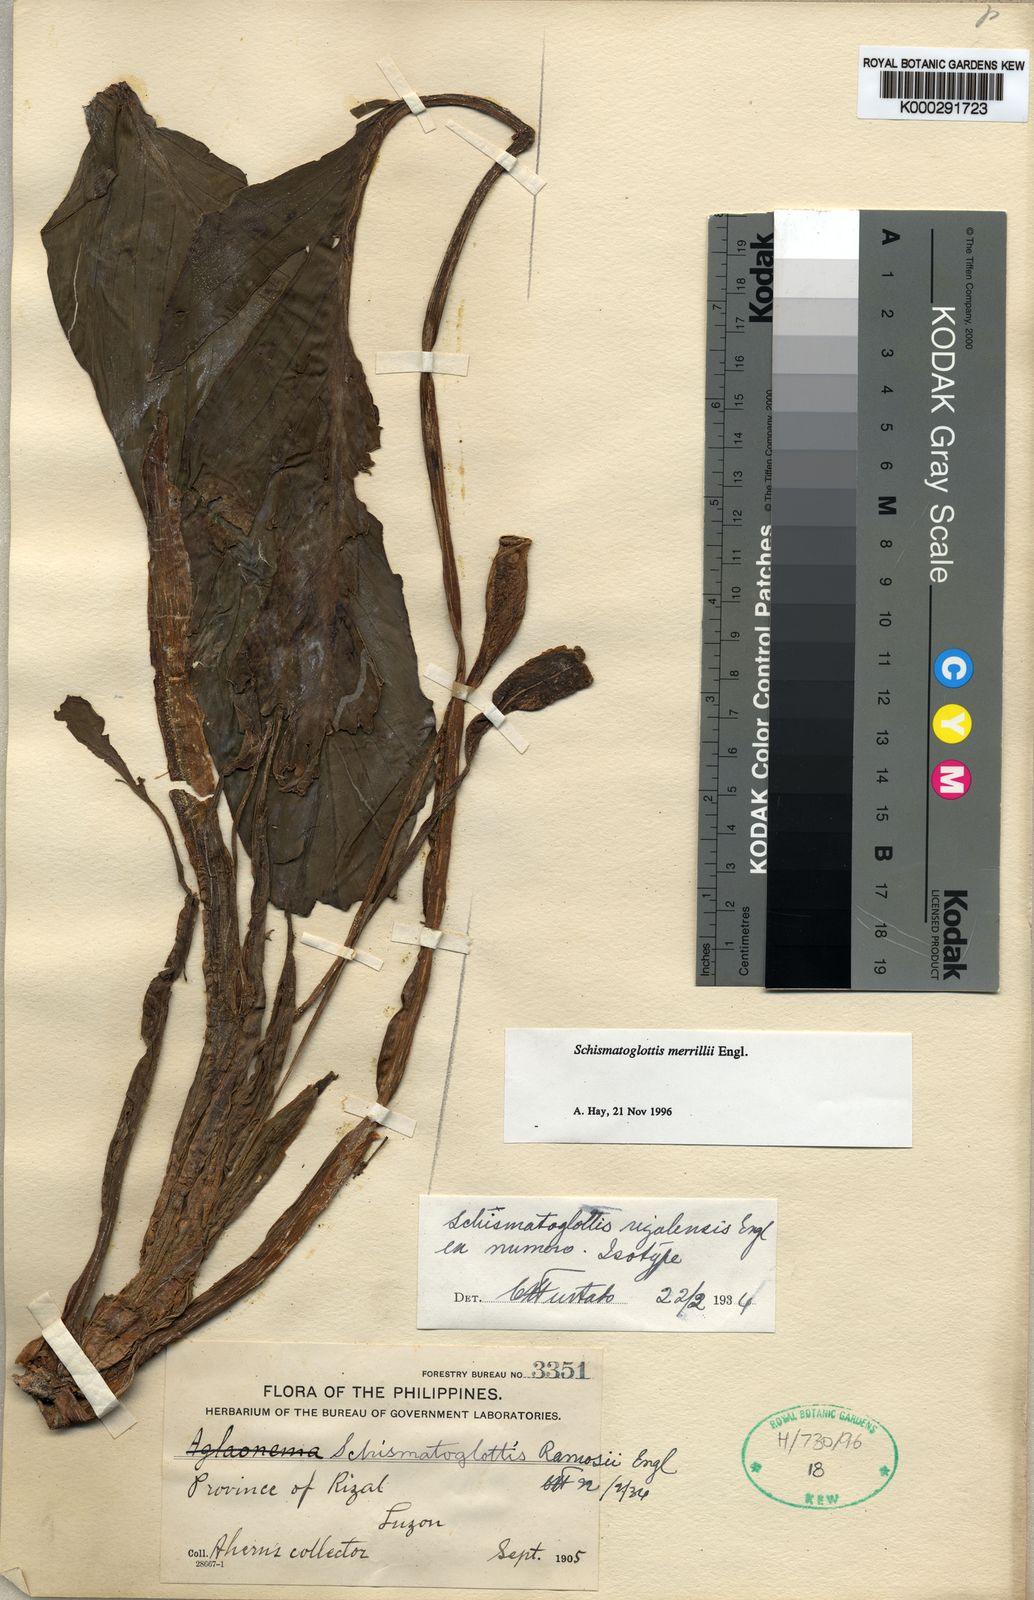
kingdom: Plantae
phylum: Tracheophyta
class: Liliopsida
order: Alismatales
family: Araceae
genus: Schismatoglottis
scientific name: Schismatoglottis merrillii
